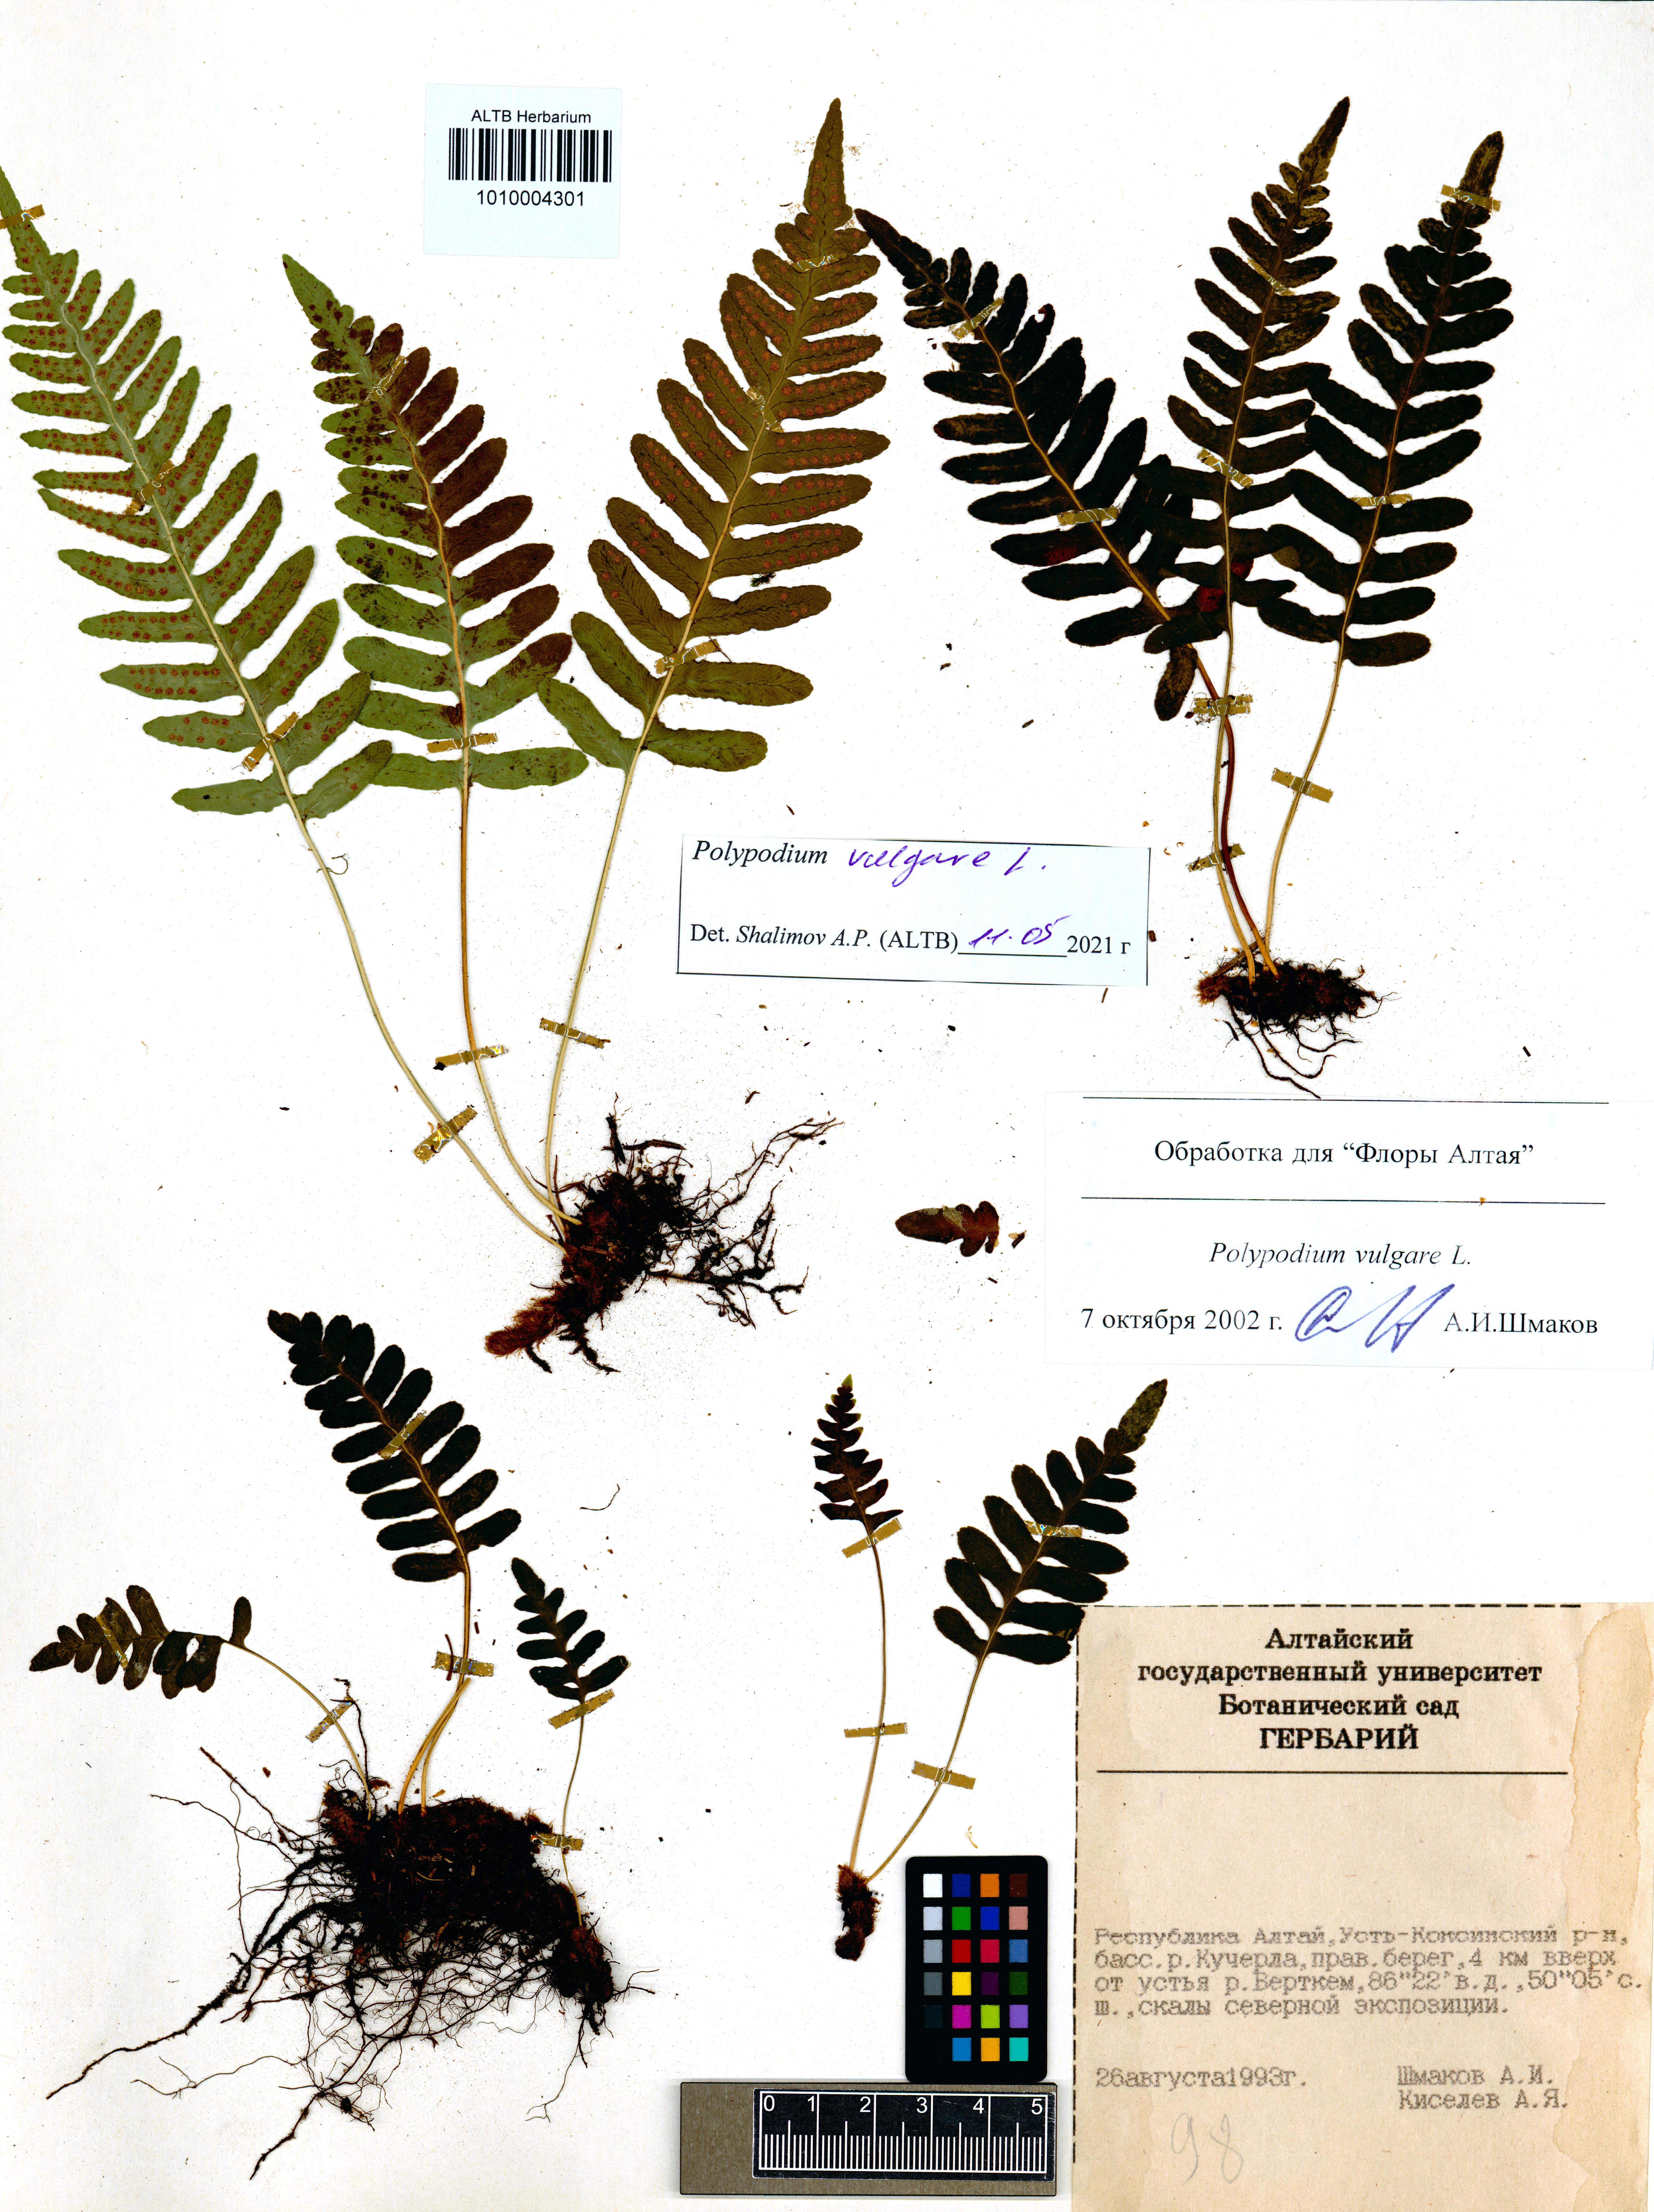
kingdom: Plantae
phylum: Tracheophyta
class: Polypodiopsida
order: Polypodiales
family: Polypodiaceae
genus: Polypodium
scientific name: Polypodium vulgare
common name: Common polypody
